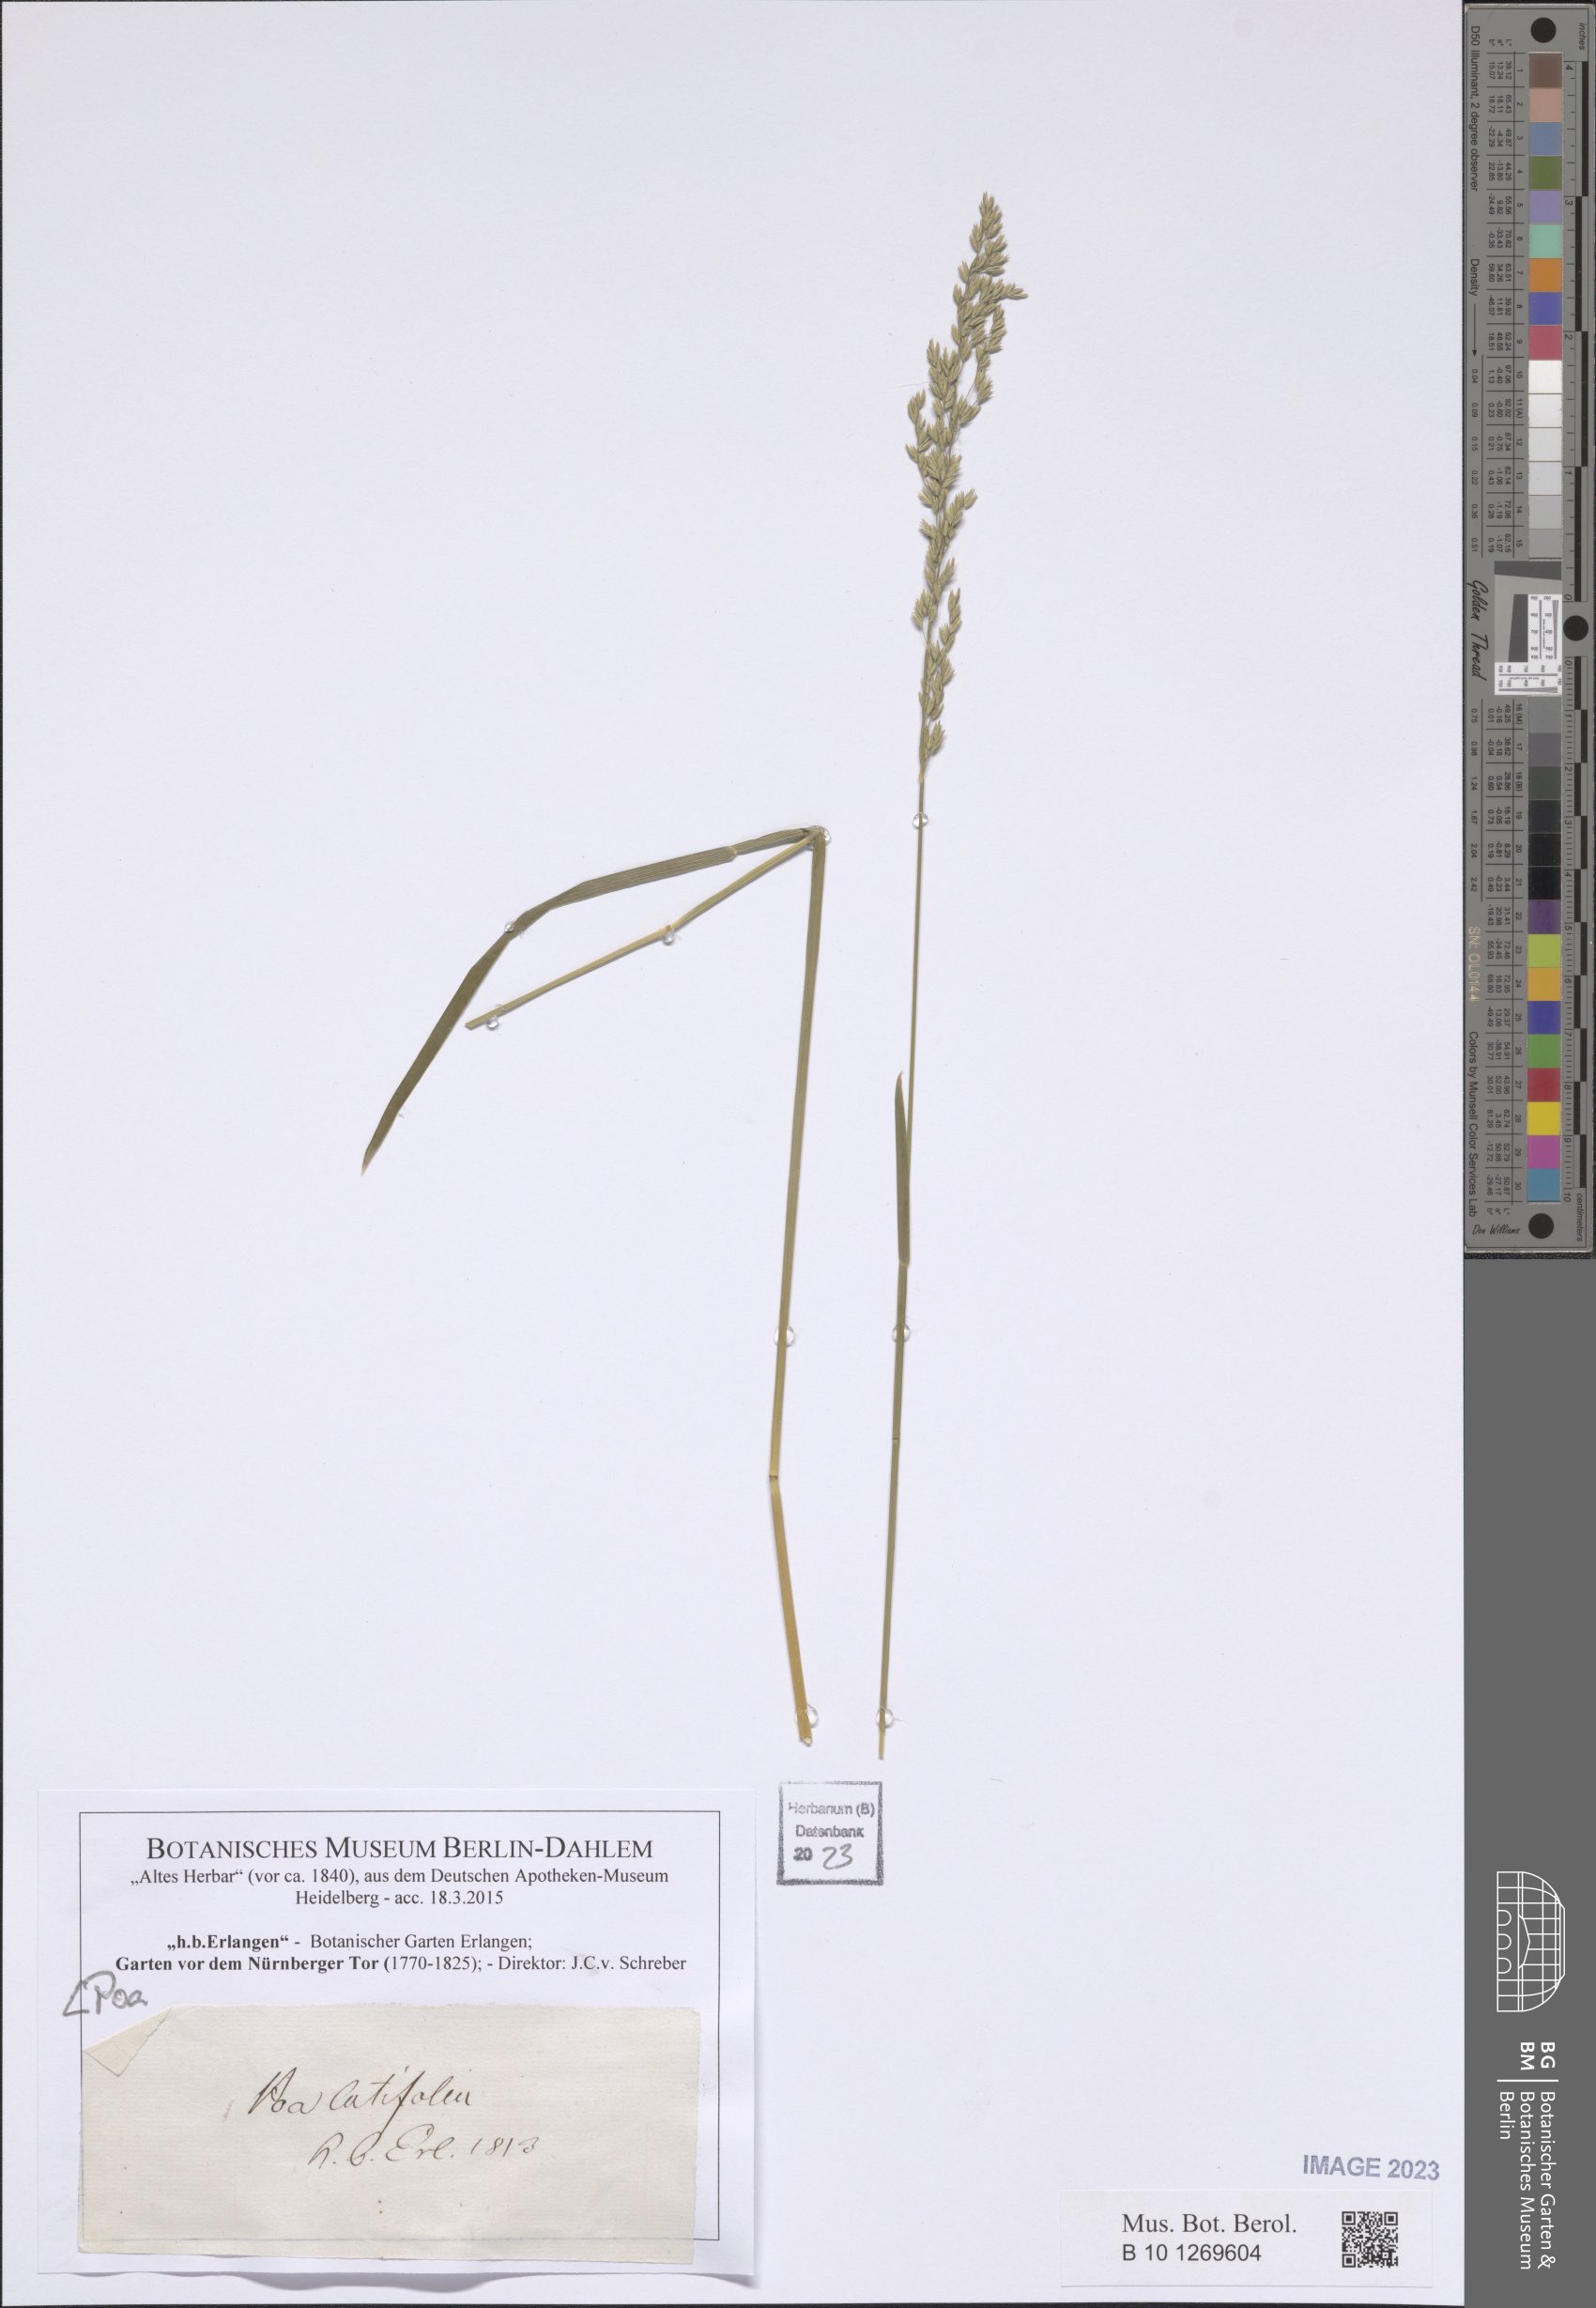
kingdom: Plantae
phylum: Tracheophyta
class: Liliopsida
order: Poales
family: Poaceae
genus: Poa
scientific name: Poa
